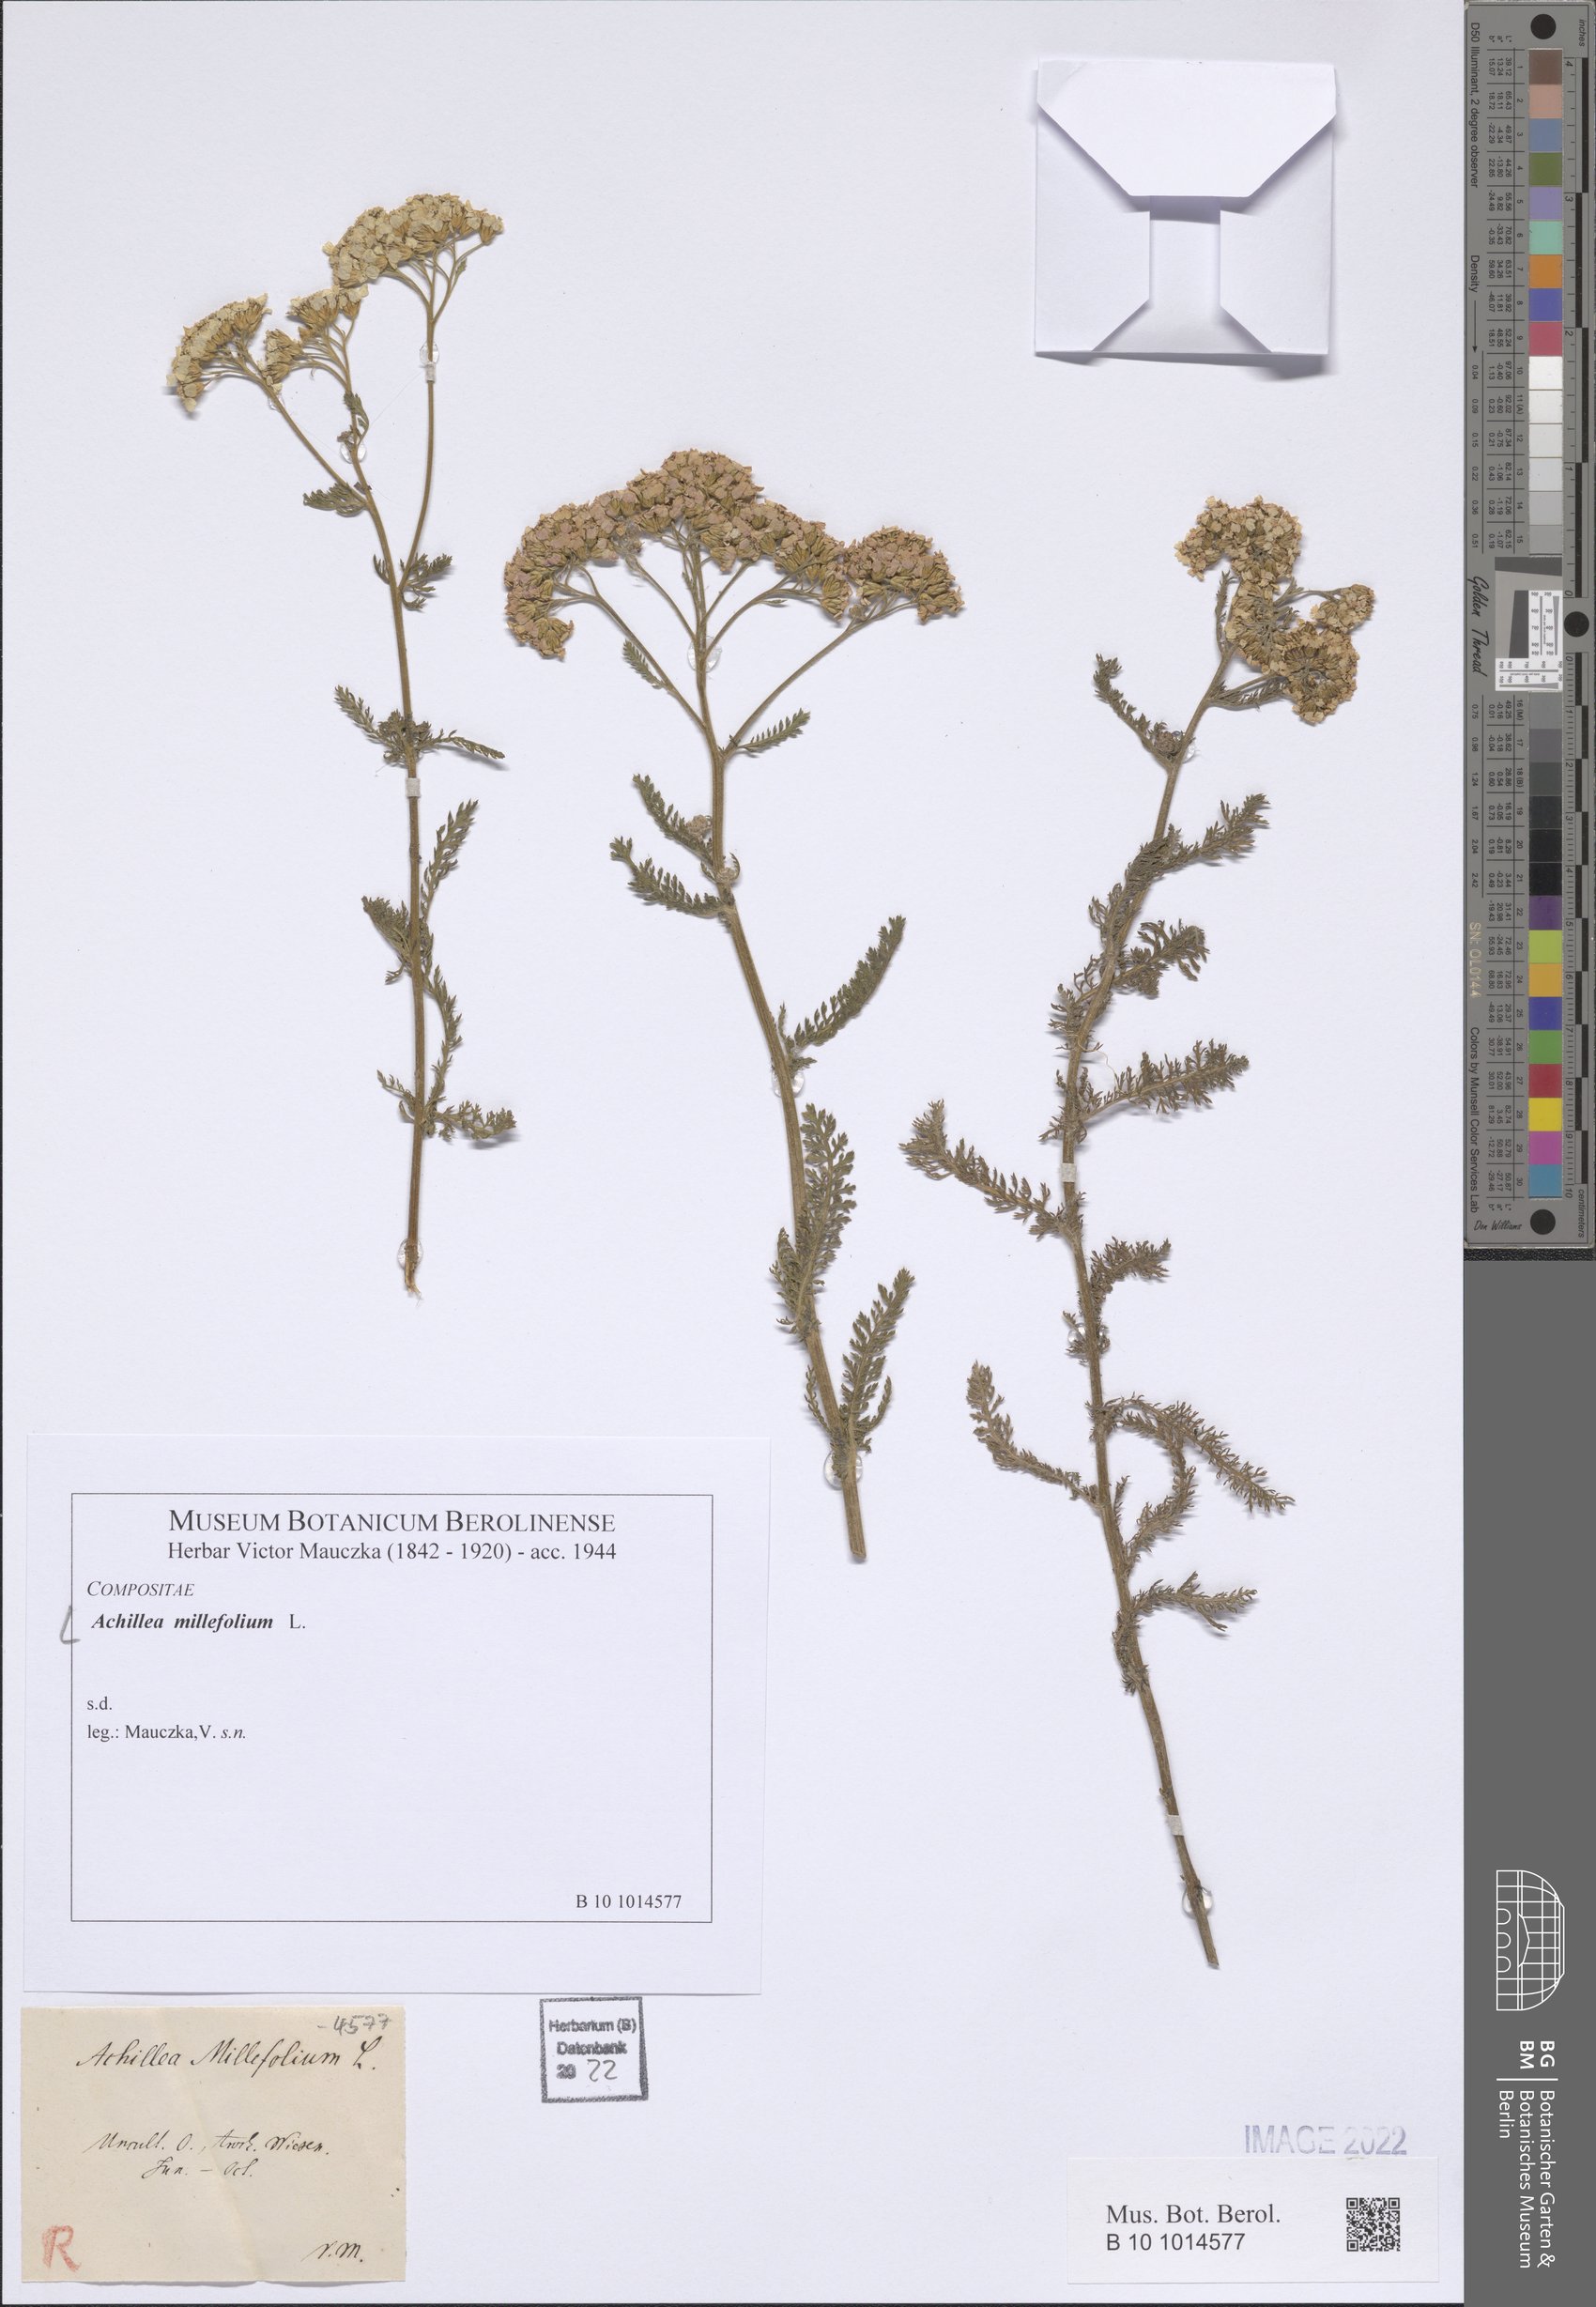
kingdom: Plantae
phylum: Tracheophyta
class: Magnoliopsida
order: Asterales
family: Asteraceae
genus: Achillea
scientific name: Achillea millefolium
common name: Yarrow
